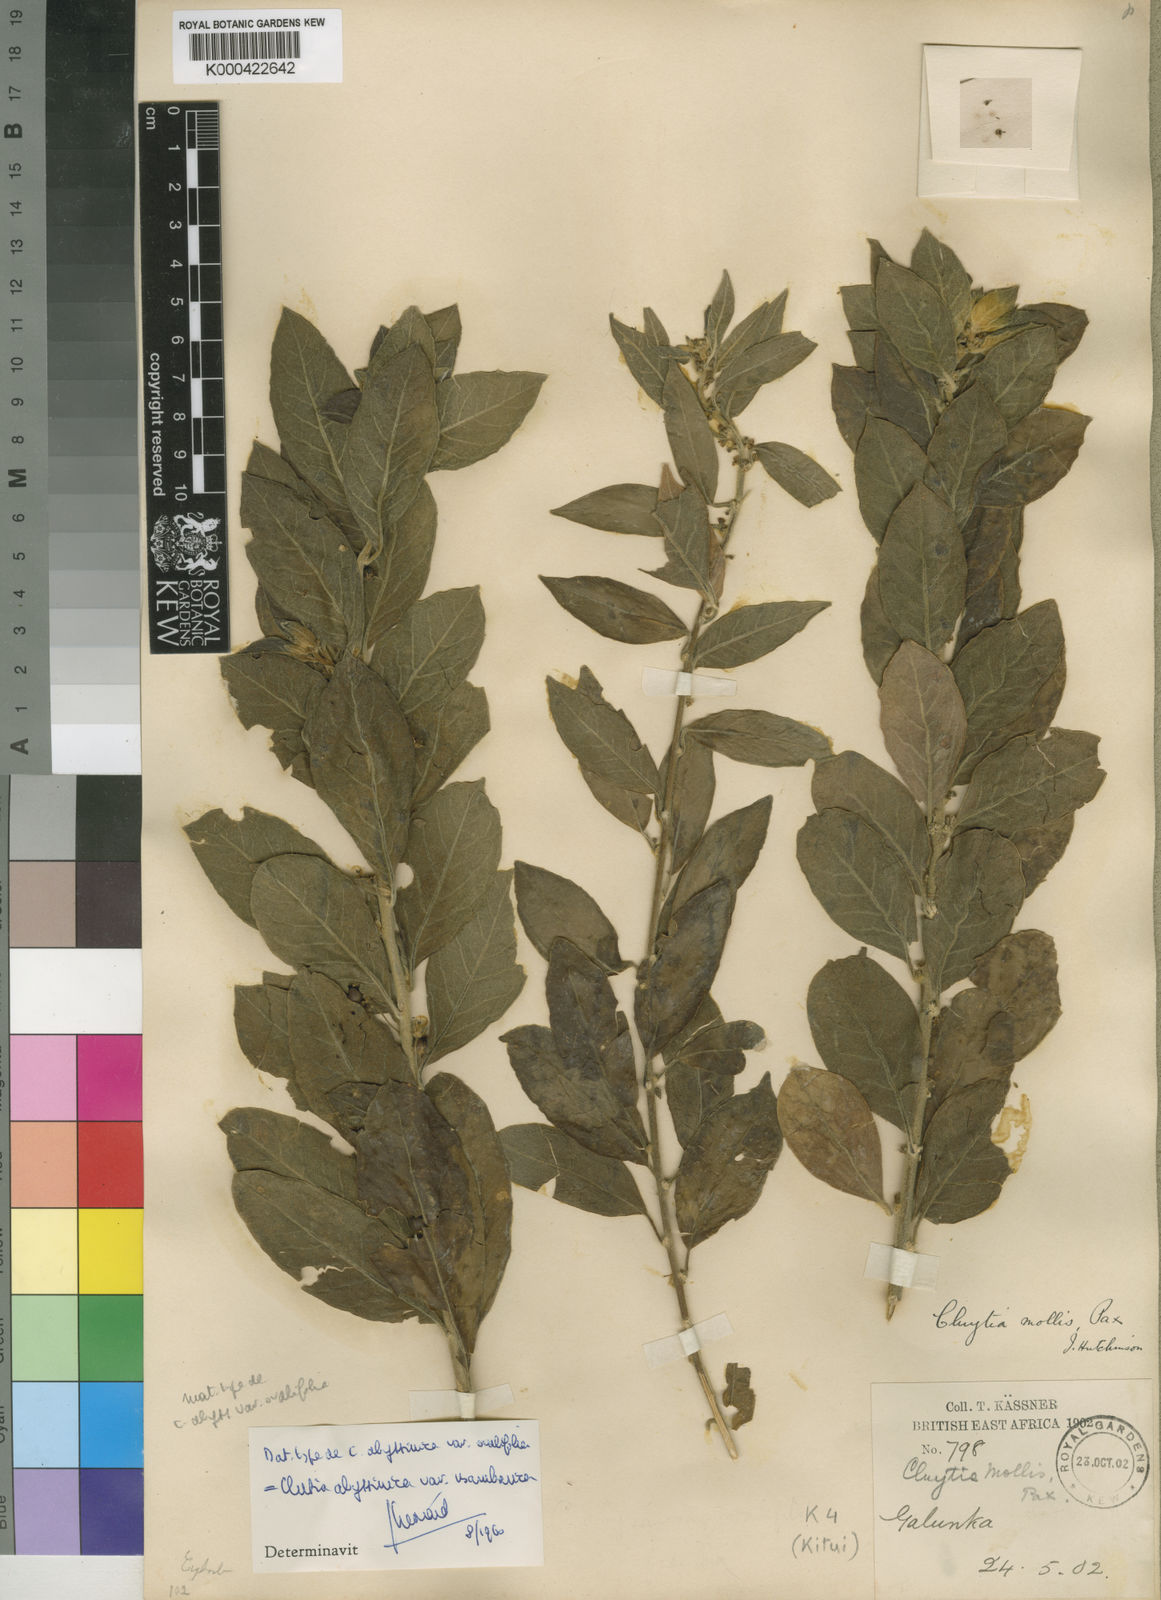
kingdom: Plantae
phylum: Tracheophyta
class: Magnoliopsida
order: Malpighiales
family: Peraceae
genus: Clutia
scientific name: Clutia abyssinica
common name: Large lightning bush
